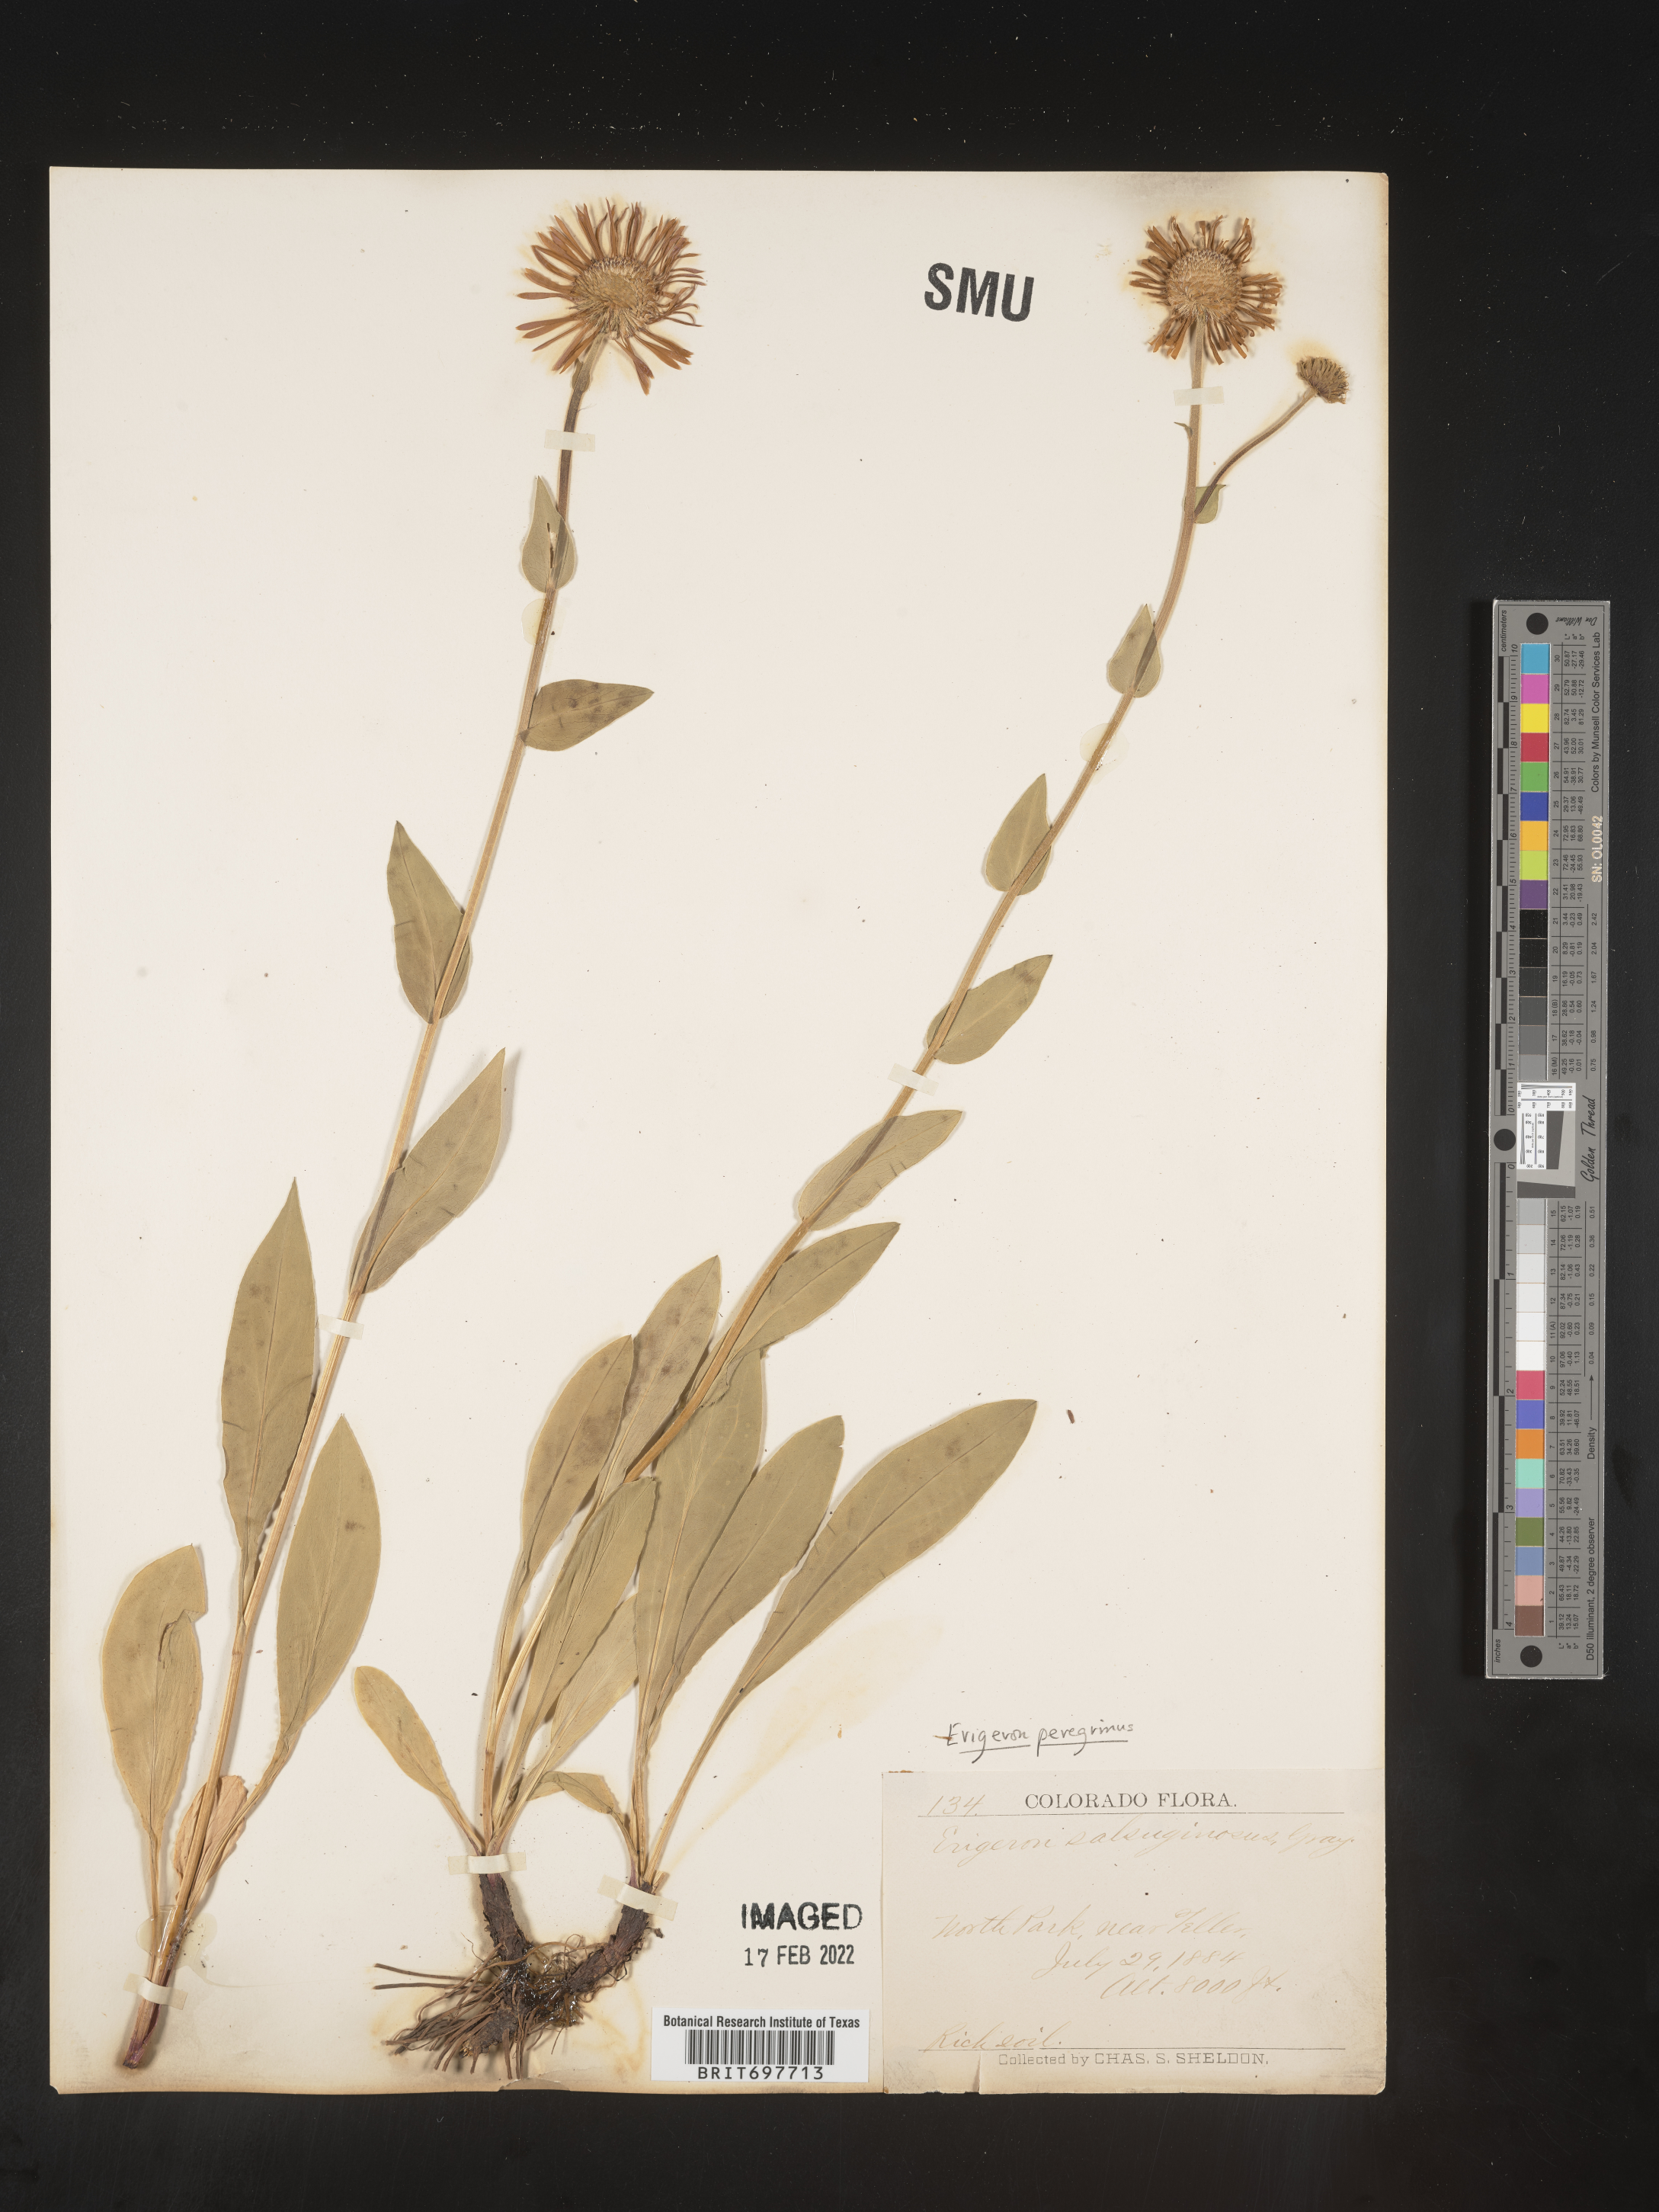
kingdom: Plantae
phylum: Tracheophyta
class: Magnoliopsida
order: Asterales
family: Asteraceae
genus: Erigeron
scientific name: Erigeron glacialis
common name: Subalpine fleabane
